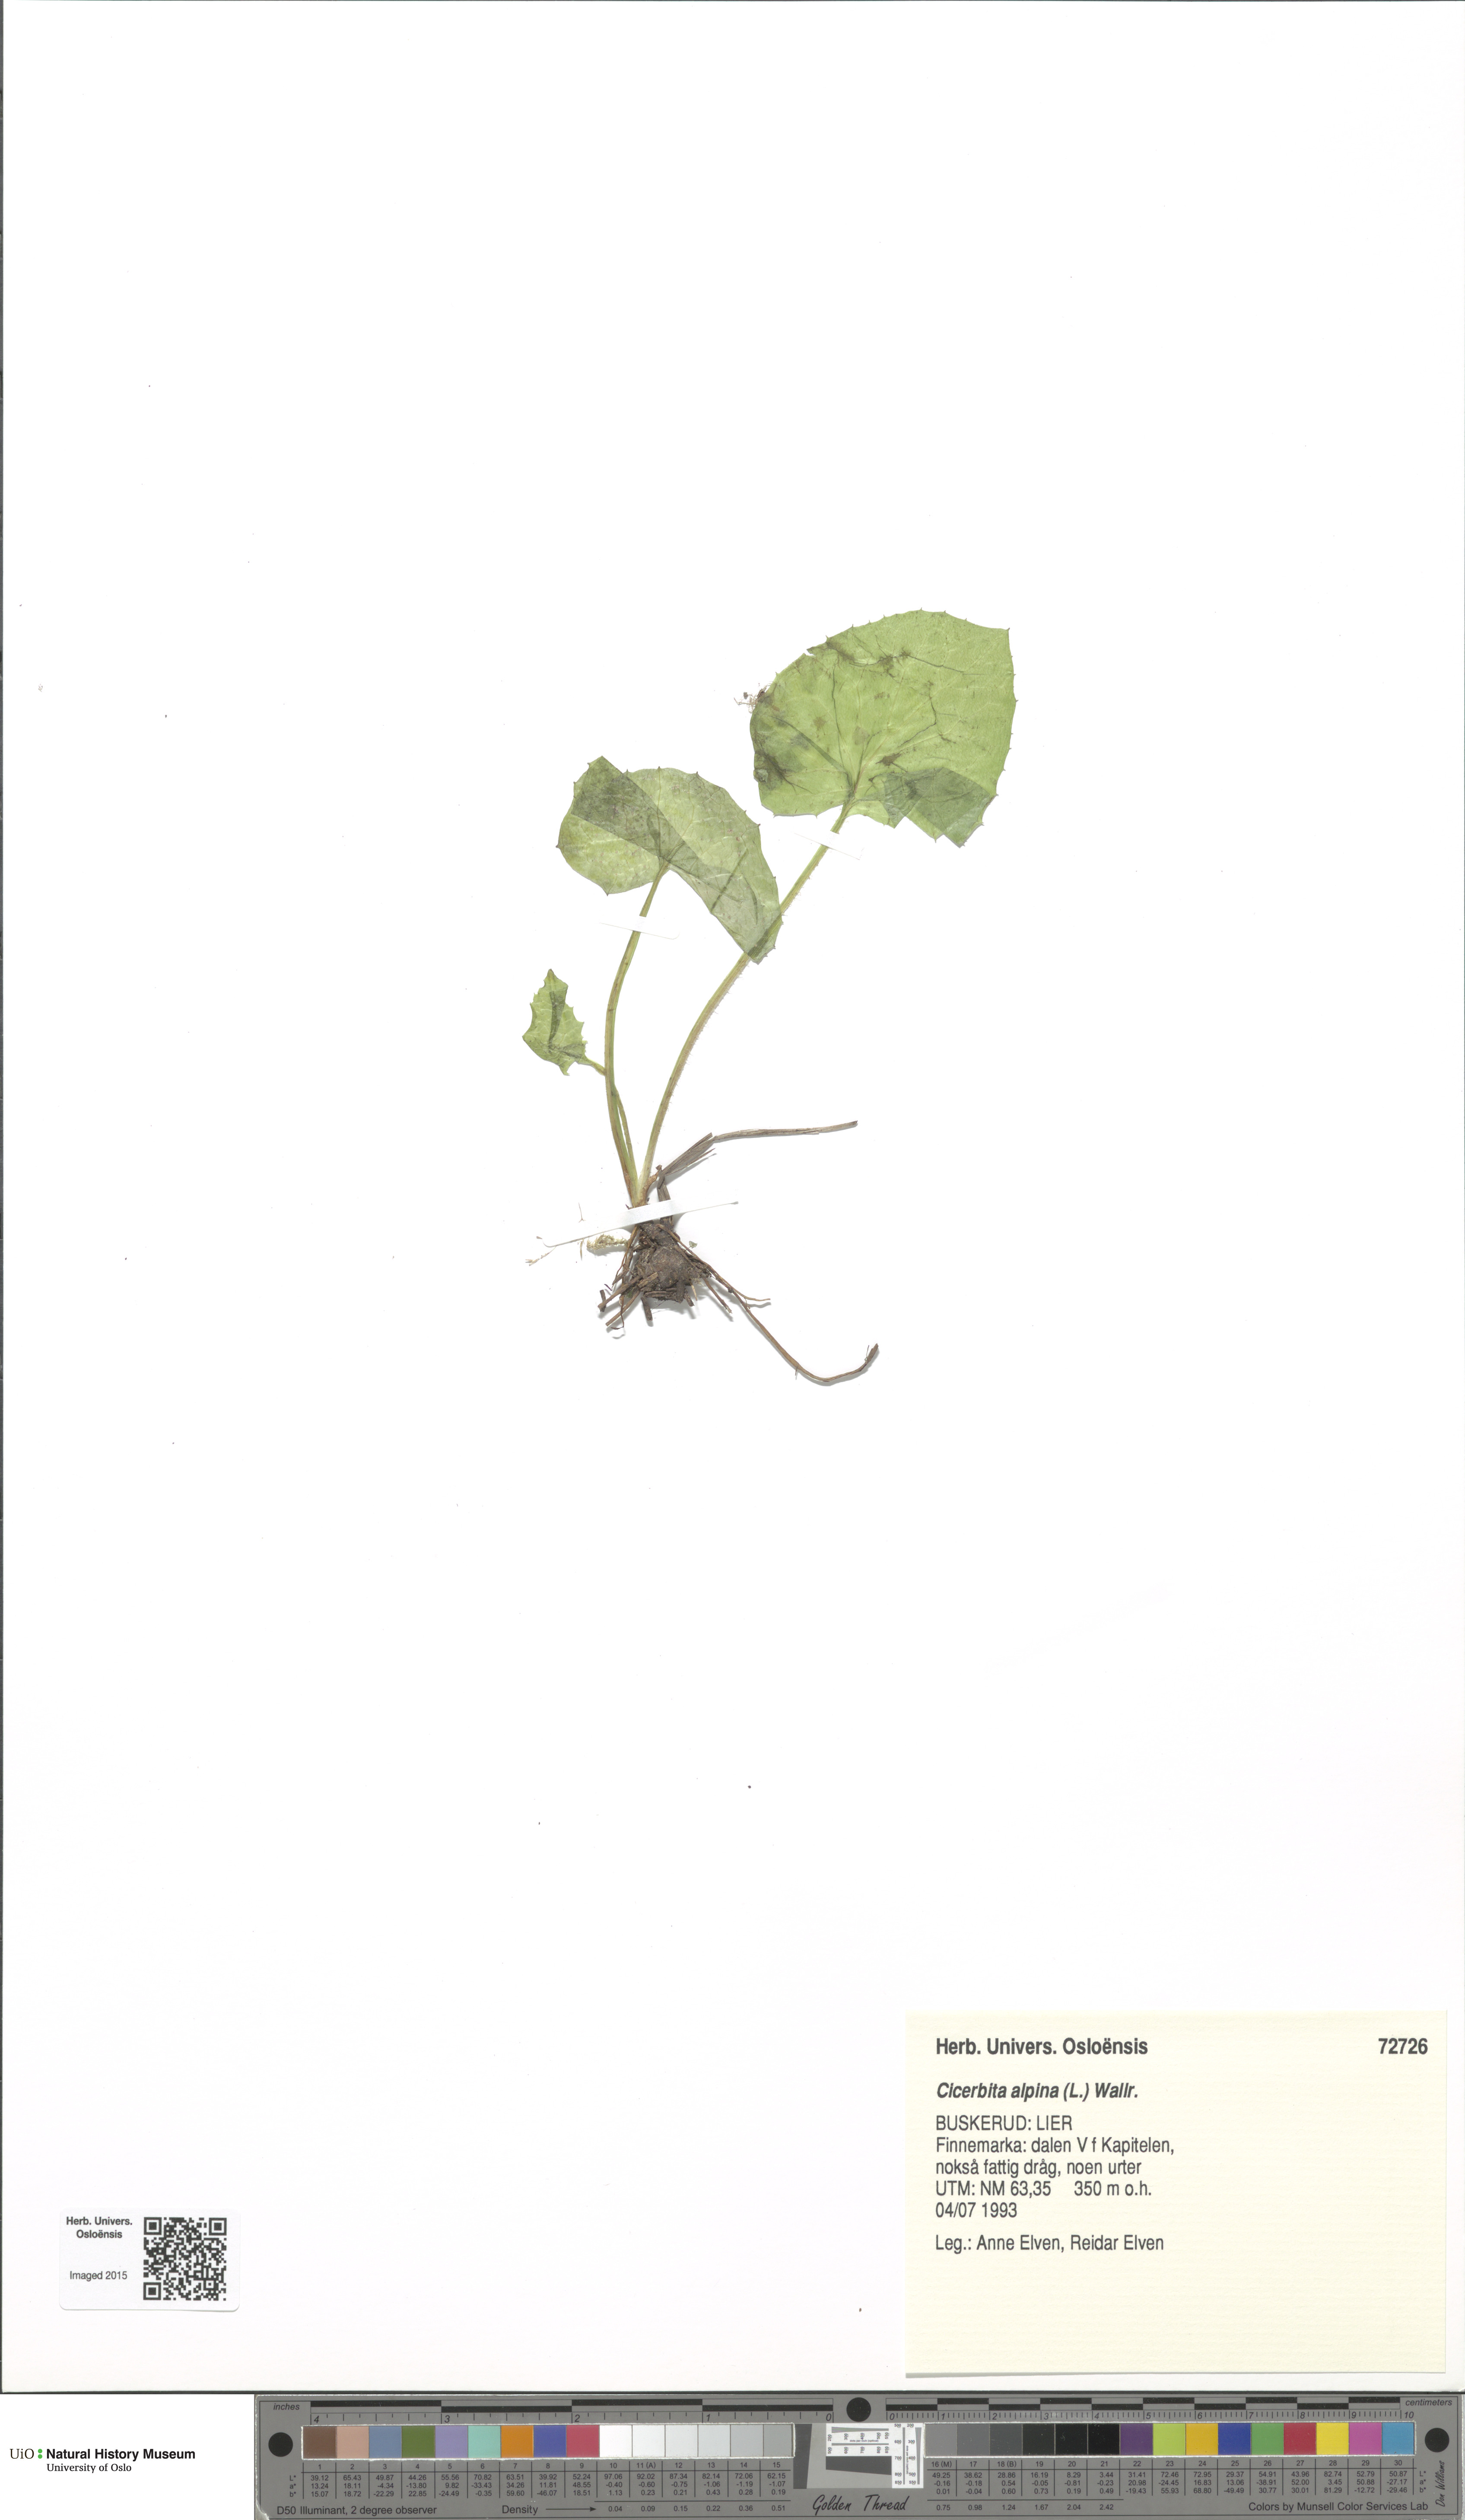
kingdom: Plantae
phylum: Tracheophyta
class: Magnoliopsida
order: Asterales
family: Asteraceae
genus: Cicerbita
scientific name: Cicerbita alpina
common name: Alpine blue-sow-thistle
